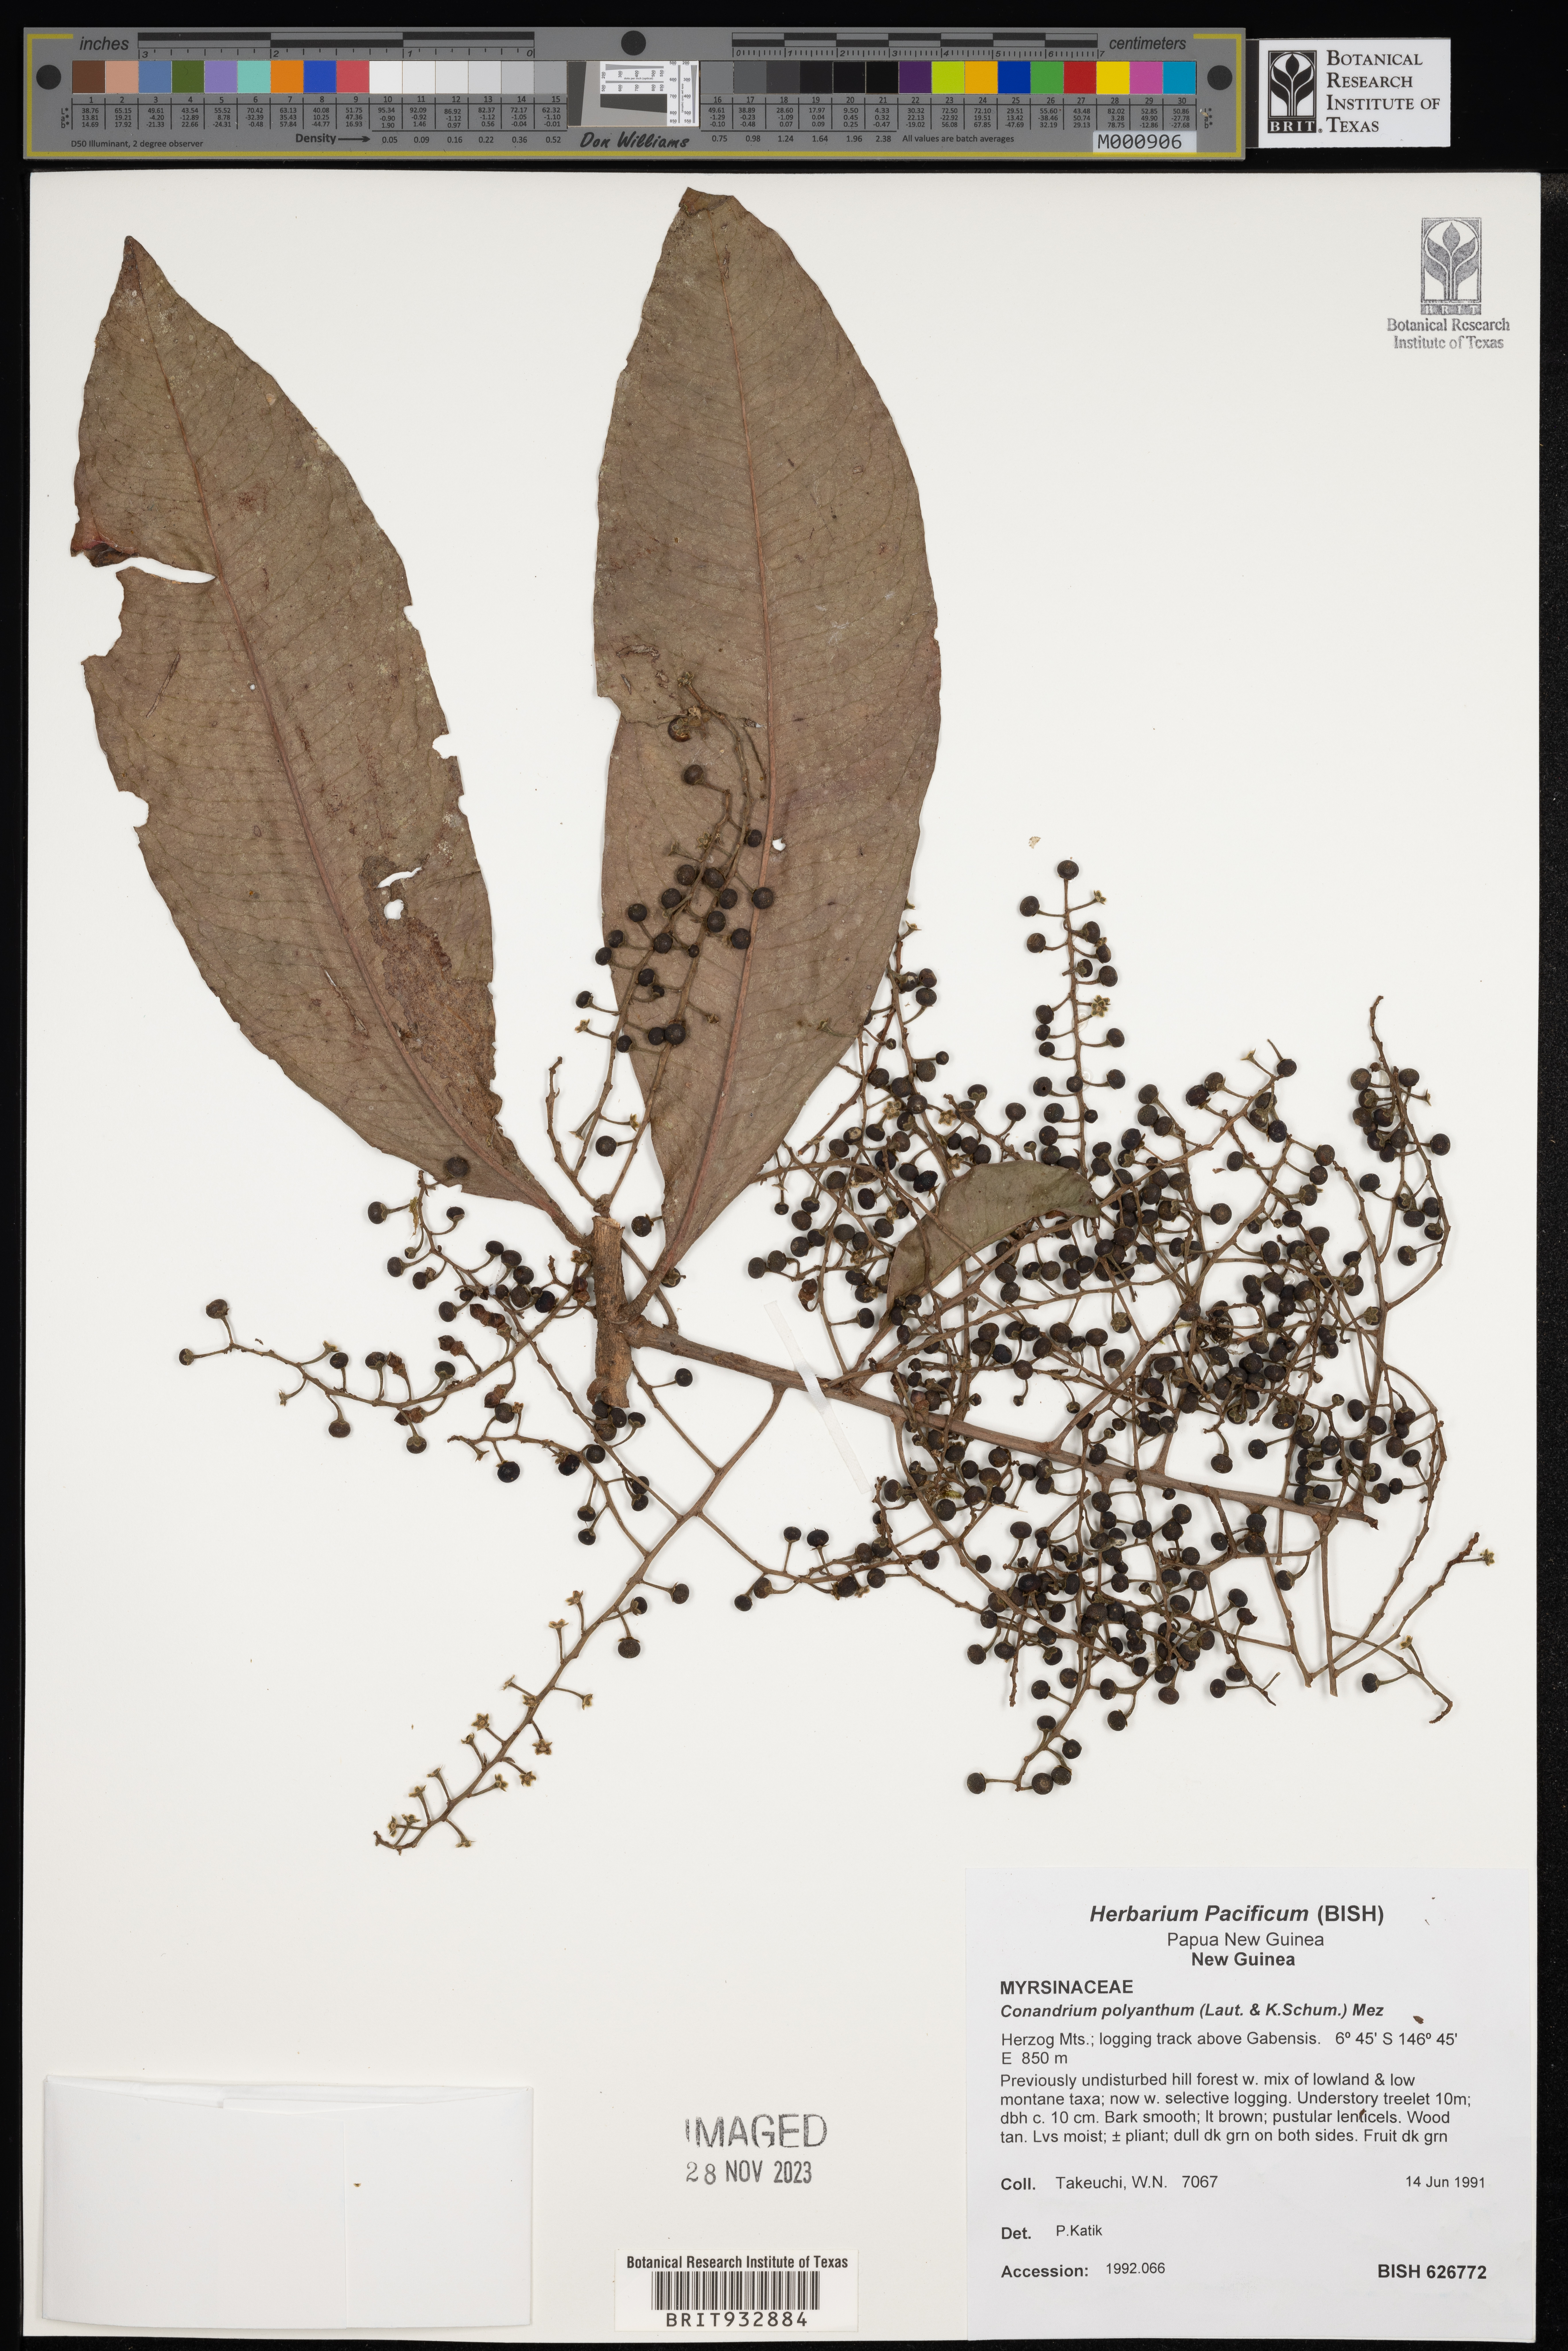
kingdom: Plantae
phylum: Tracheophyta
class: Magnoliopsida
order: Ericales
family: Primulaceae
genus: Conandrium
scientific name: Conandrium
